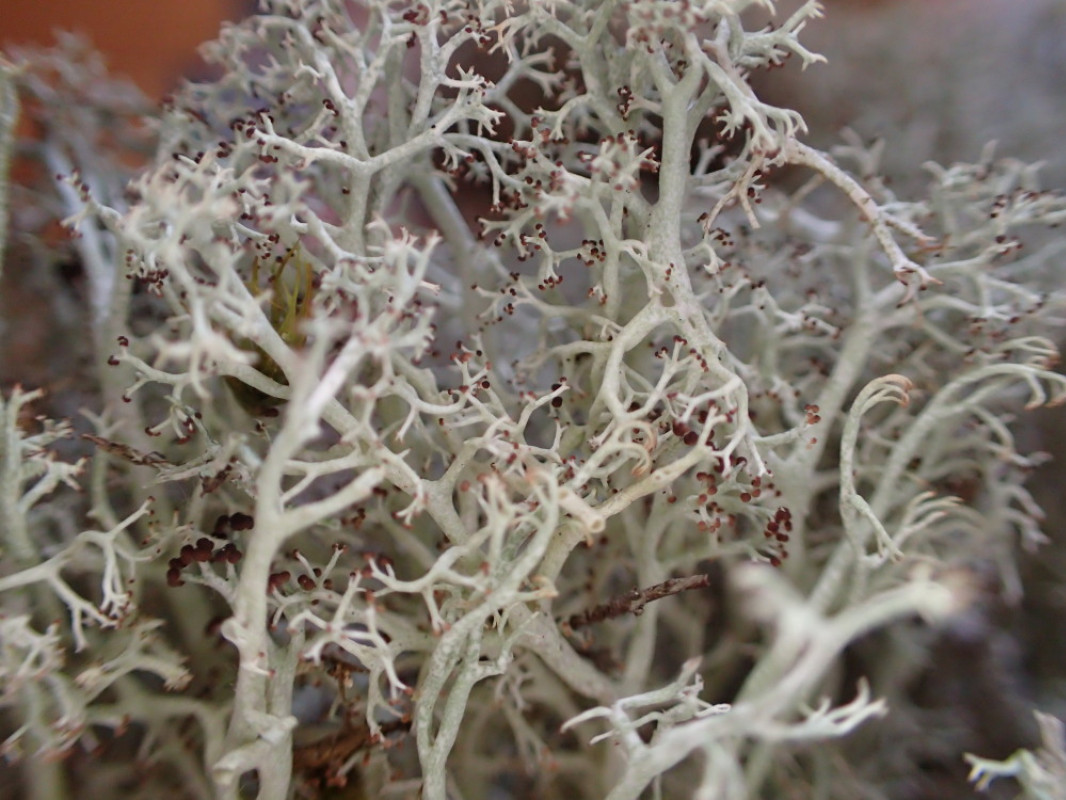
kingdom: Fungi
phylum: Ascomycota
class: Lecanoromycetes
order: Lecanorales
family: Cladoniaceae
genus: Cladonia
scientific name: Cladonia ciliata
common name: spinkel rensdyrlav
